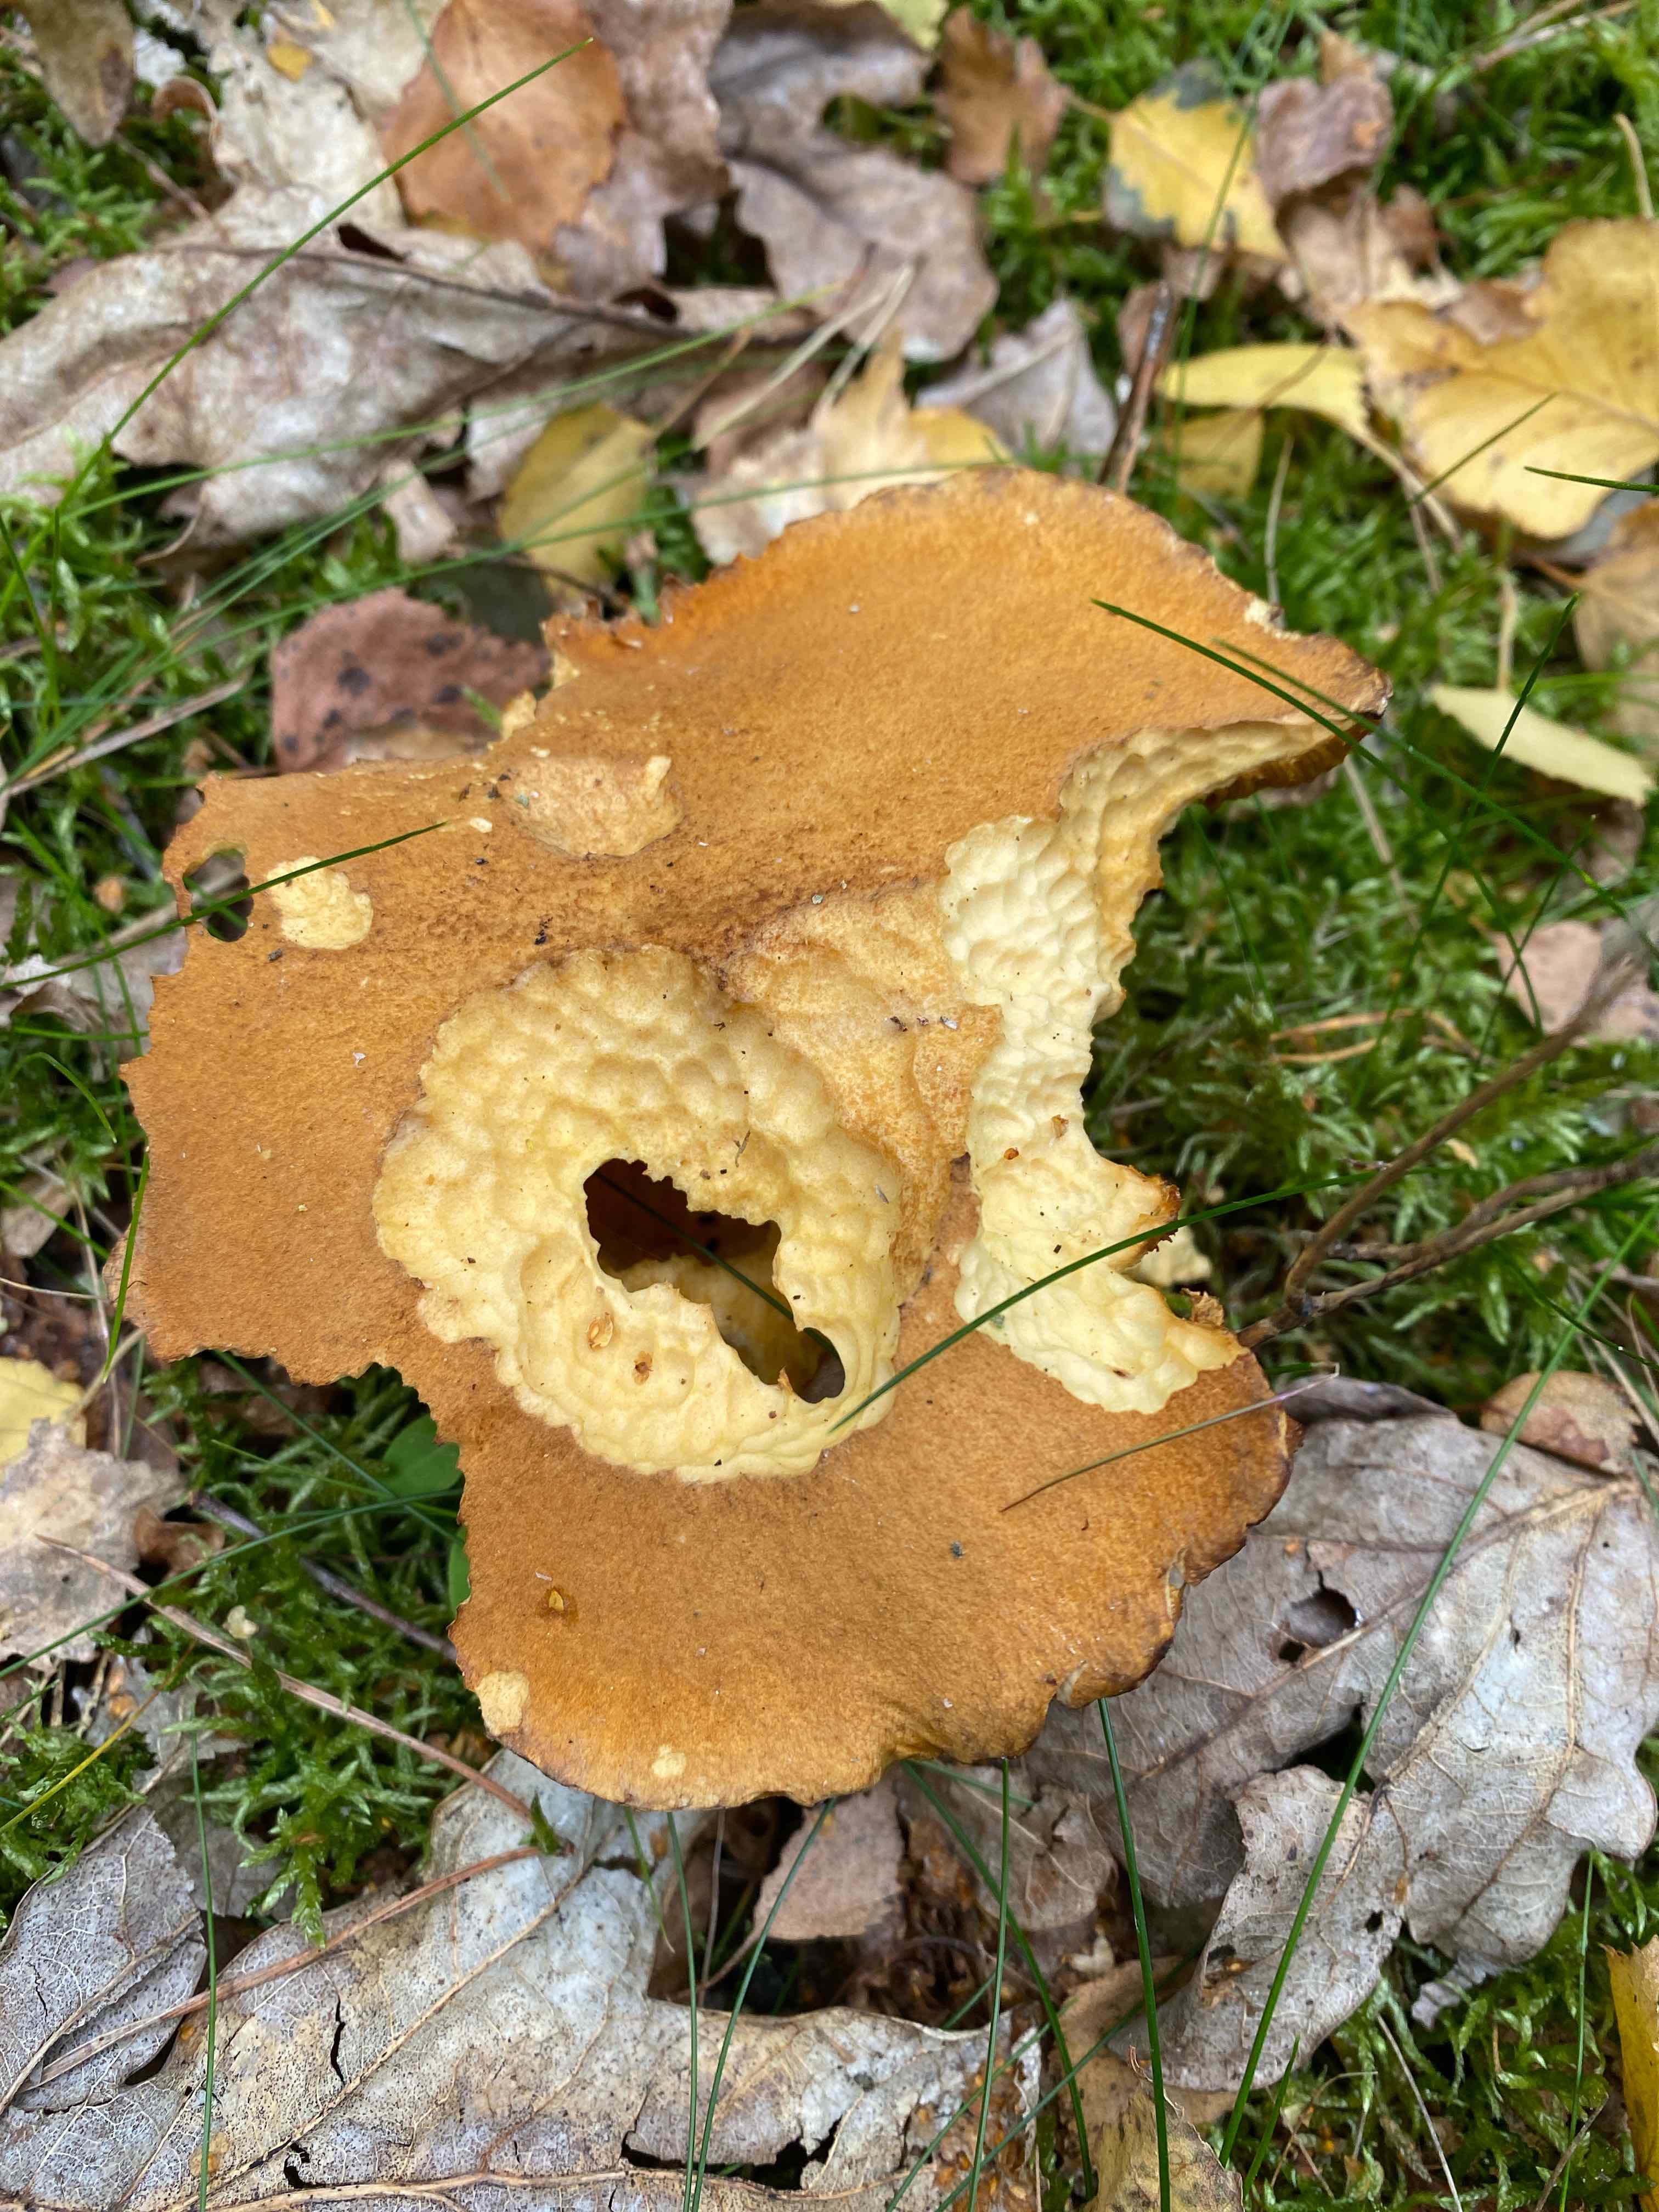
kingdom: Fungi
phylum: Basidiomycota
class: Agaricomycetes
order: Boletales
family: Suillaceae
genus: Suillus
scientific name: Suillus variegatus
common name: broget slimrørhat
